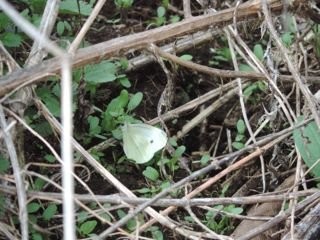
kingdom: Animalia
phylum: Arthropoda
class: Insecta
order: Lepidoptera
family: Pieridae
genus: Pieris
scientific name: Pieris rapae
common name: Cabbage White
